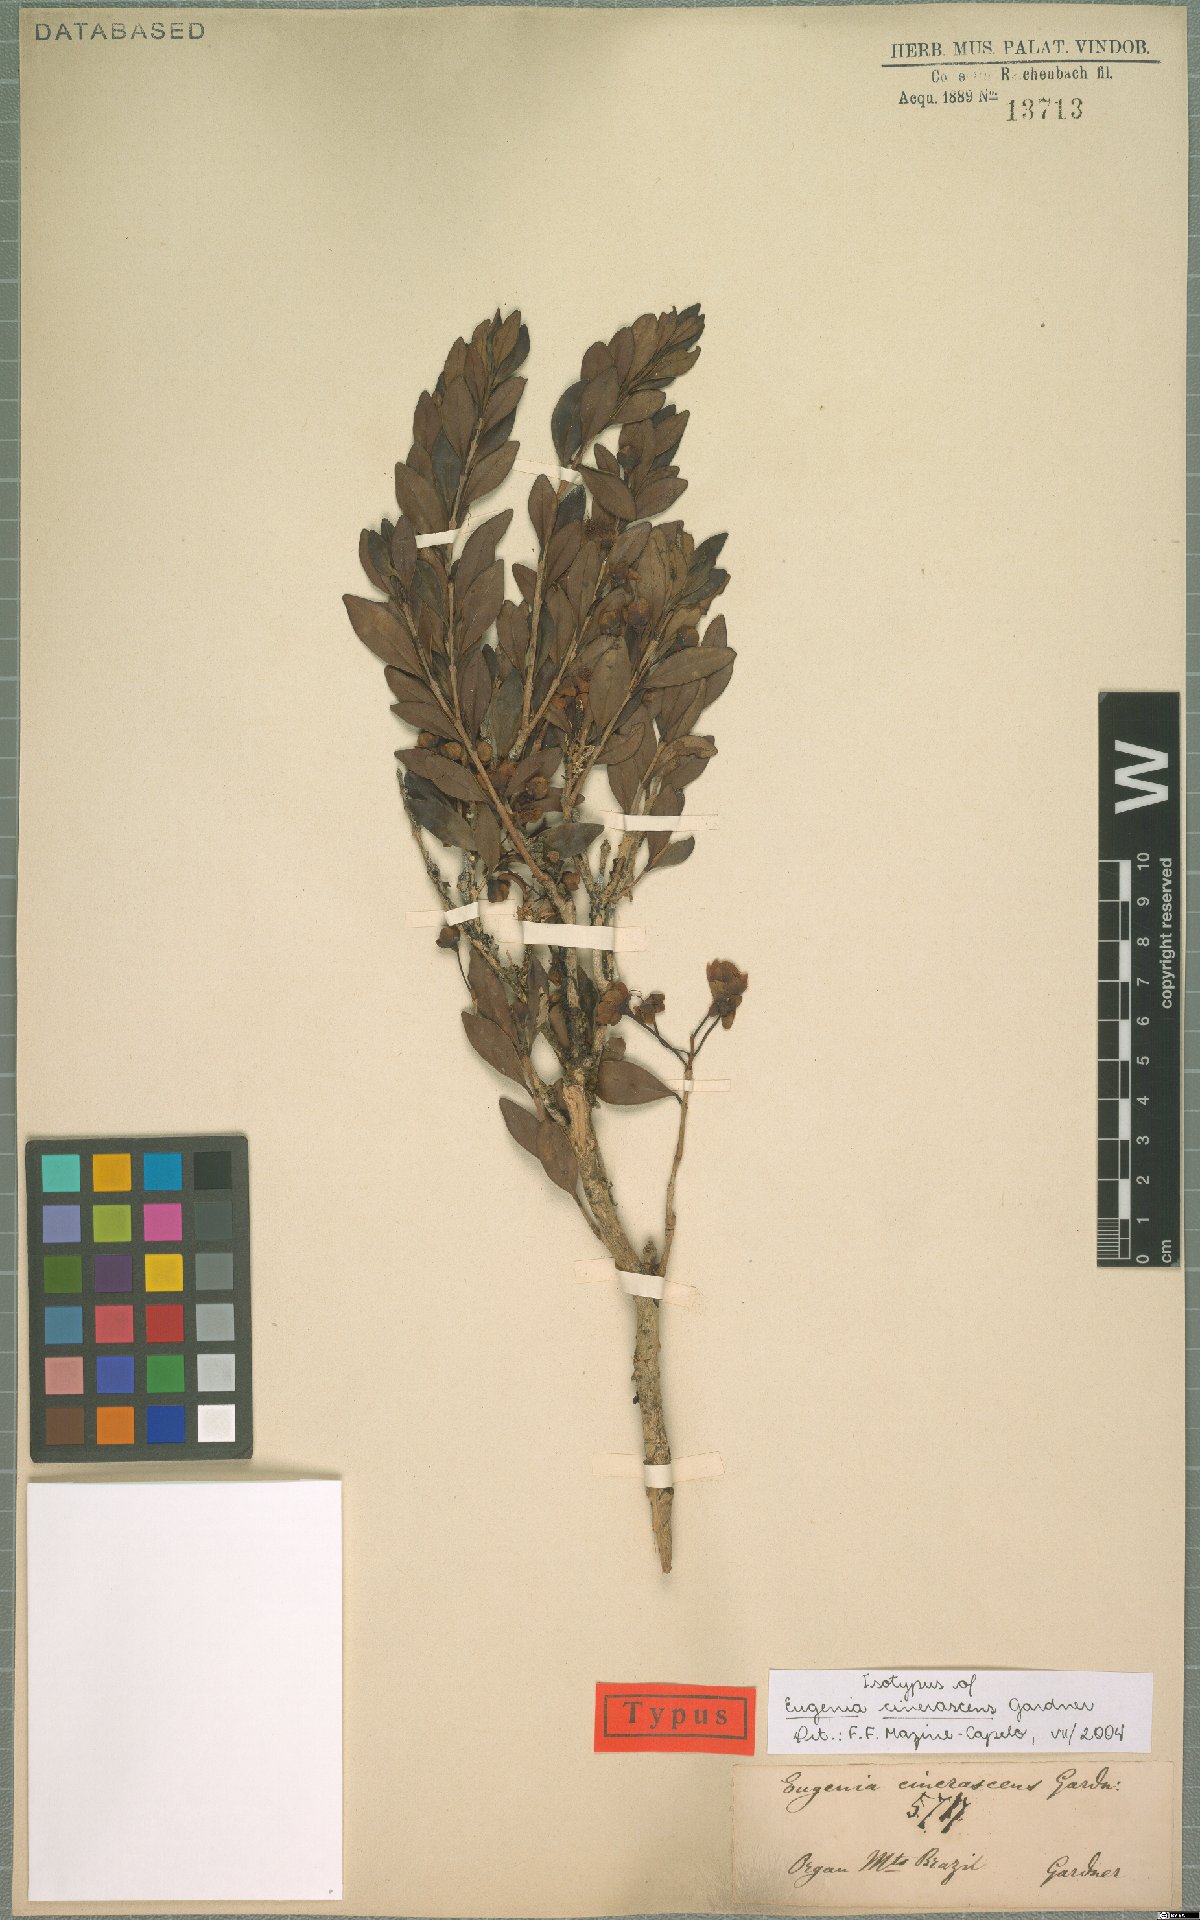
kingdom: Plantae
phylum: Tracheophyta
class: Magnoliopsida
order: Myrtales
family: Myrtaceae
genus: Eugenia
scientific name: Eugenia cinerascens
